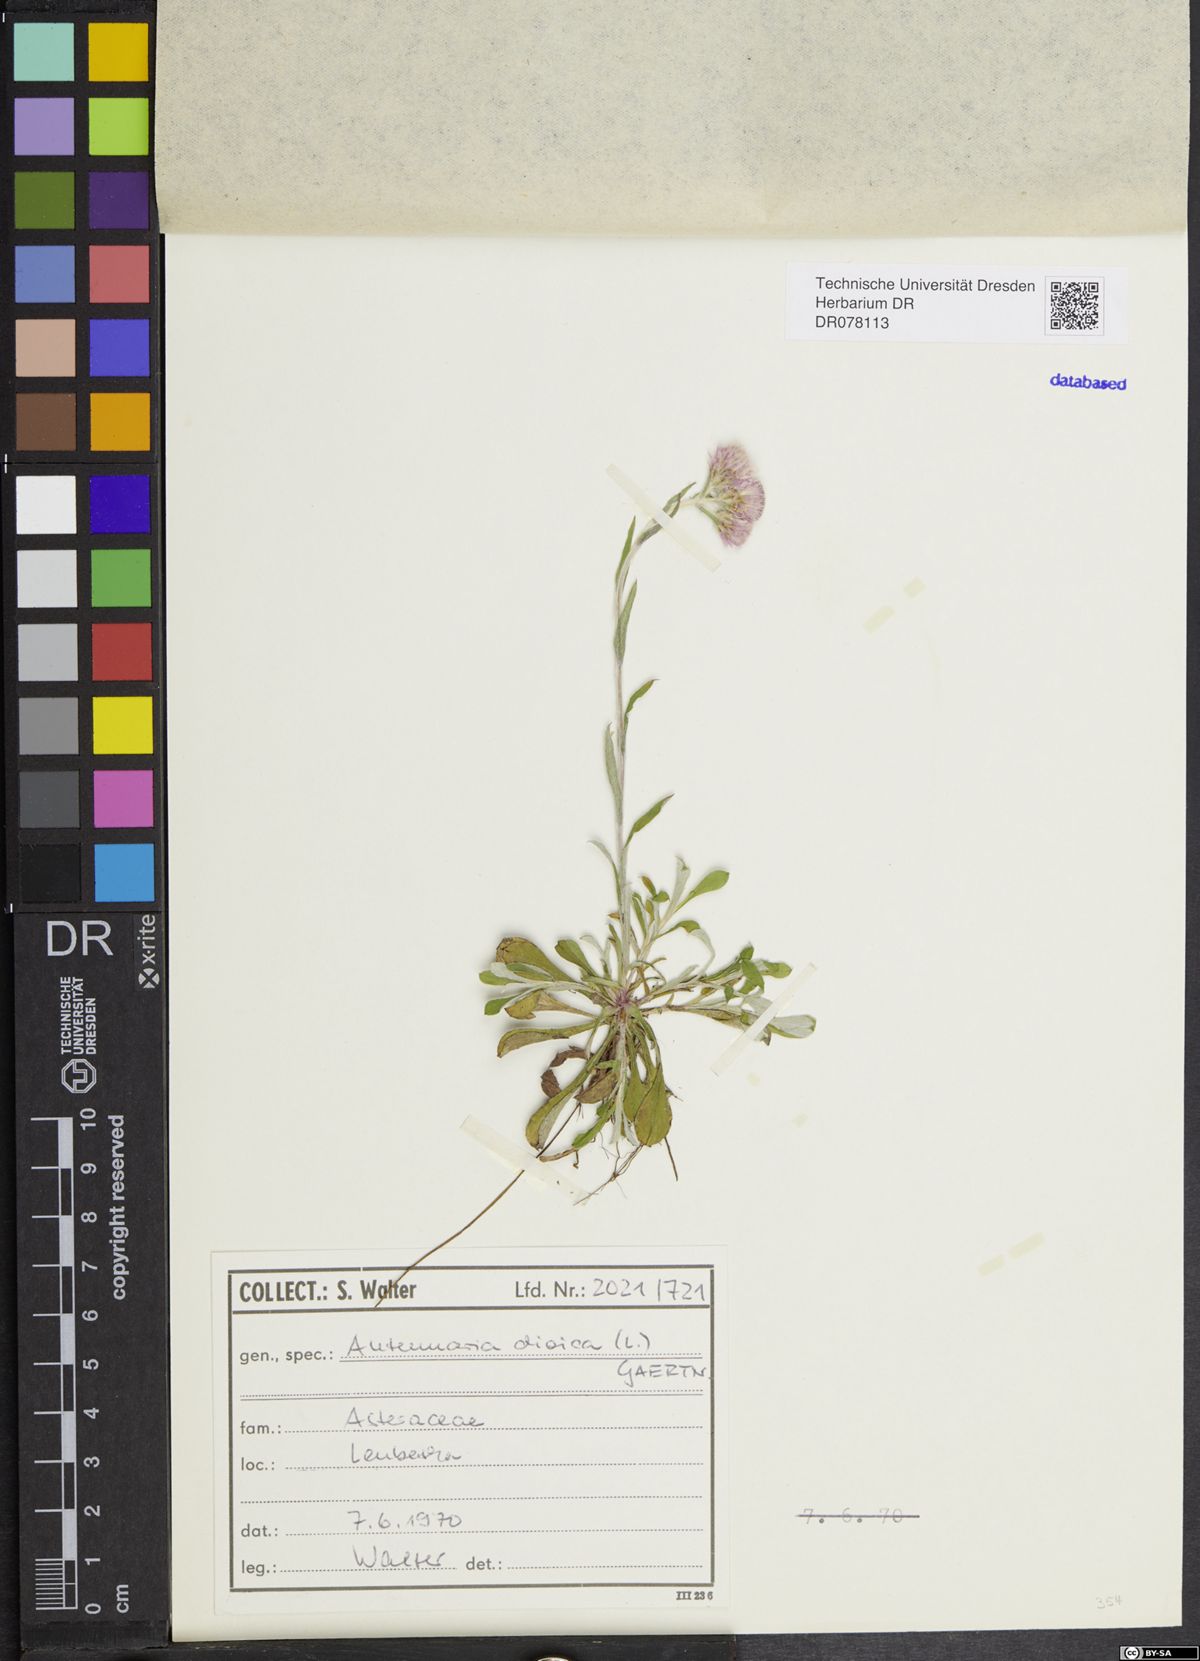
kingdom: Plantae
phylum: Tracheophyta
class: Magnoliopsida
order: Asterales
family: Asteraceae
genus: Antennaria
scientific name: Antennaria dioica
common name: Mountain everlasting
